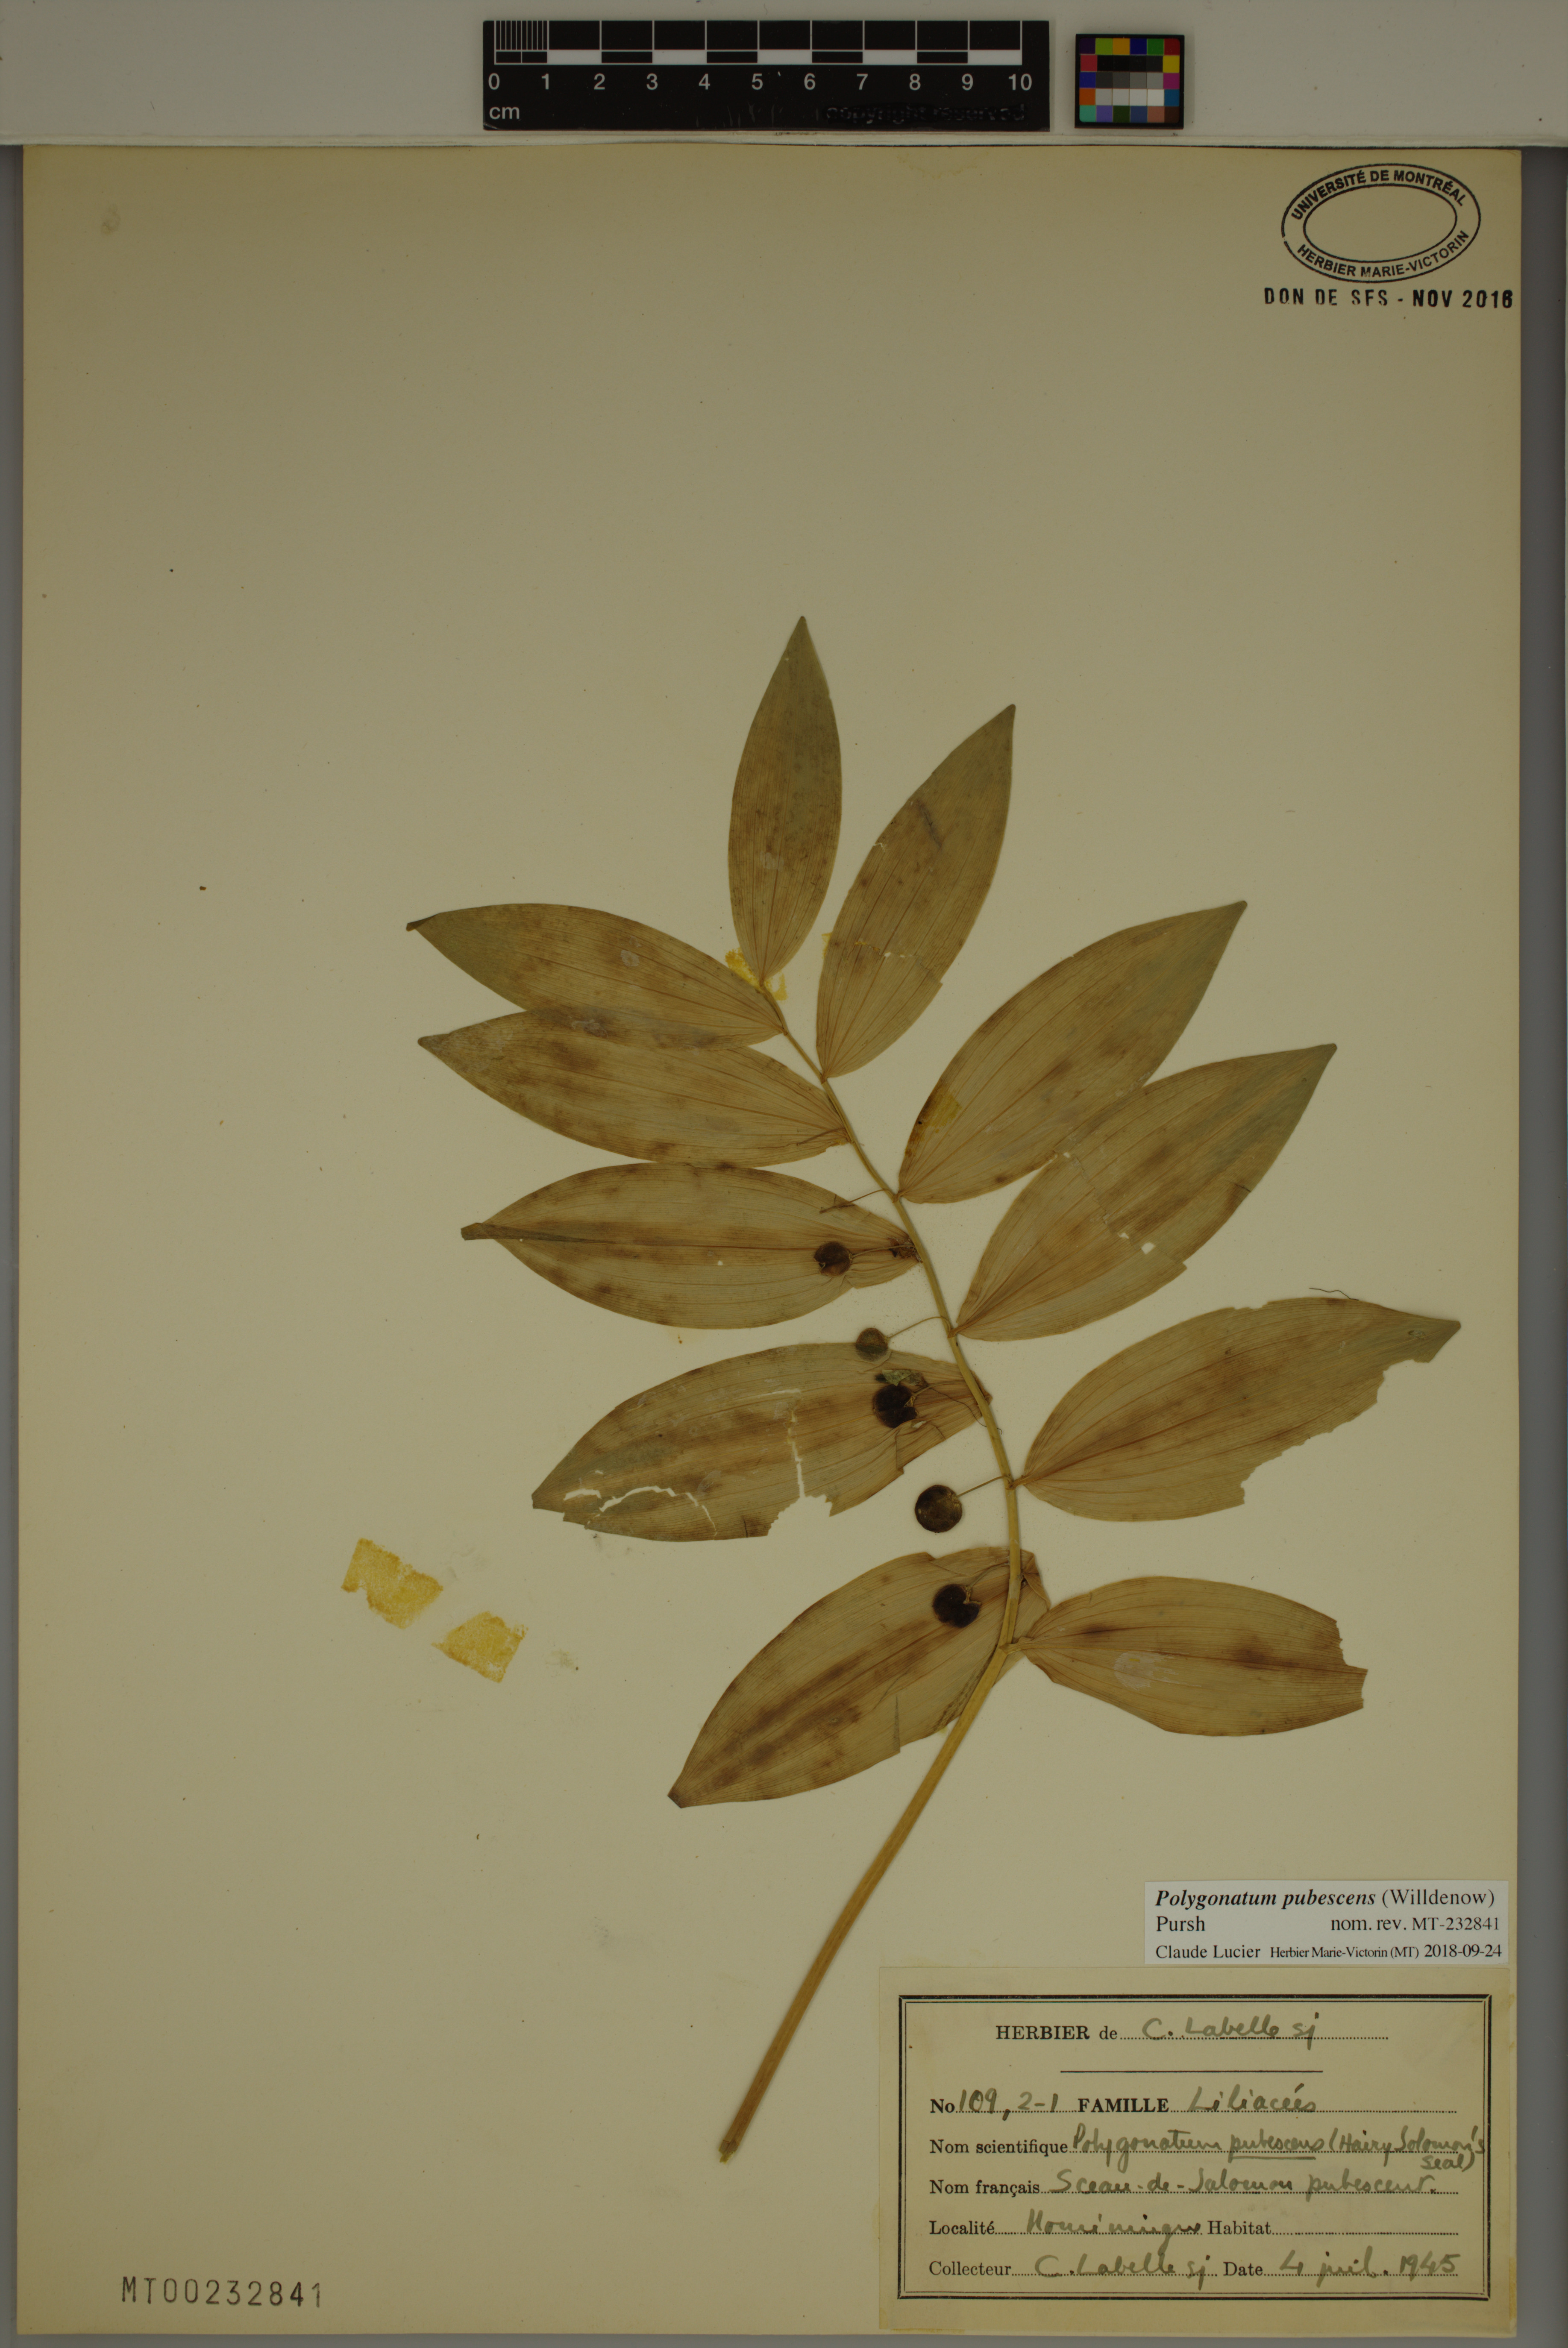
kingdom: Plantae
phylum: Tracheophyta
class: Liliopsida
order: Asparagales
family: Asparagaceae
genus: Polygonatum
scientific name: Polygonatum pubescens
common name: Downy solomon's seal
